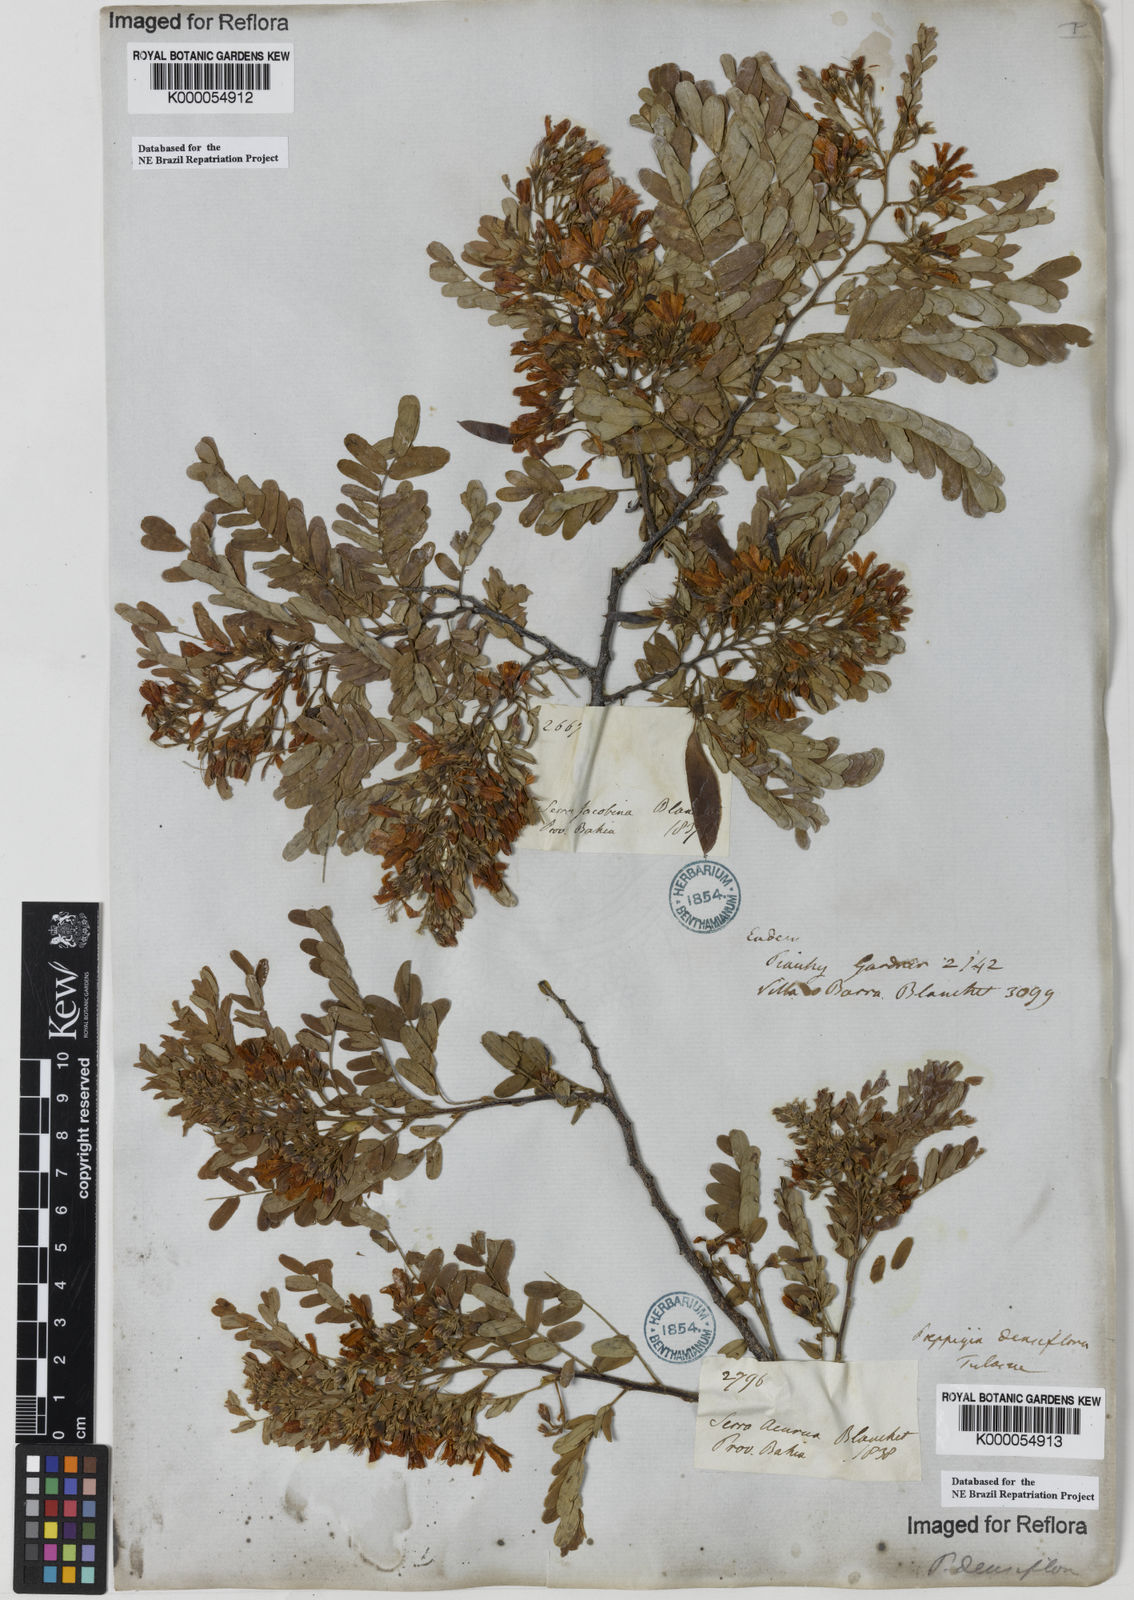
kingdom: Plantae
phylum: Tracheophyta
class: Magnoliopsida
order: Fabales
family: Fabaceae
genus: Poeppigia
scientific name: Poeppigia procera
